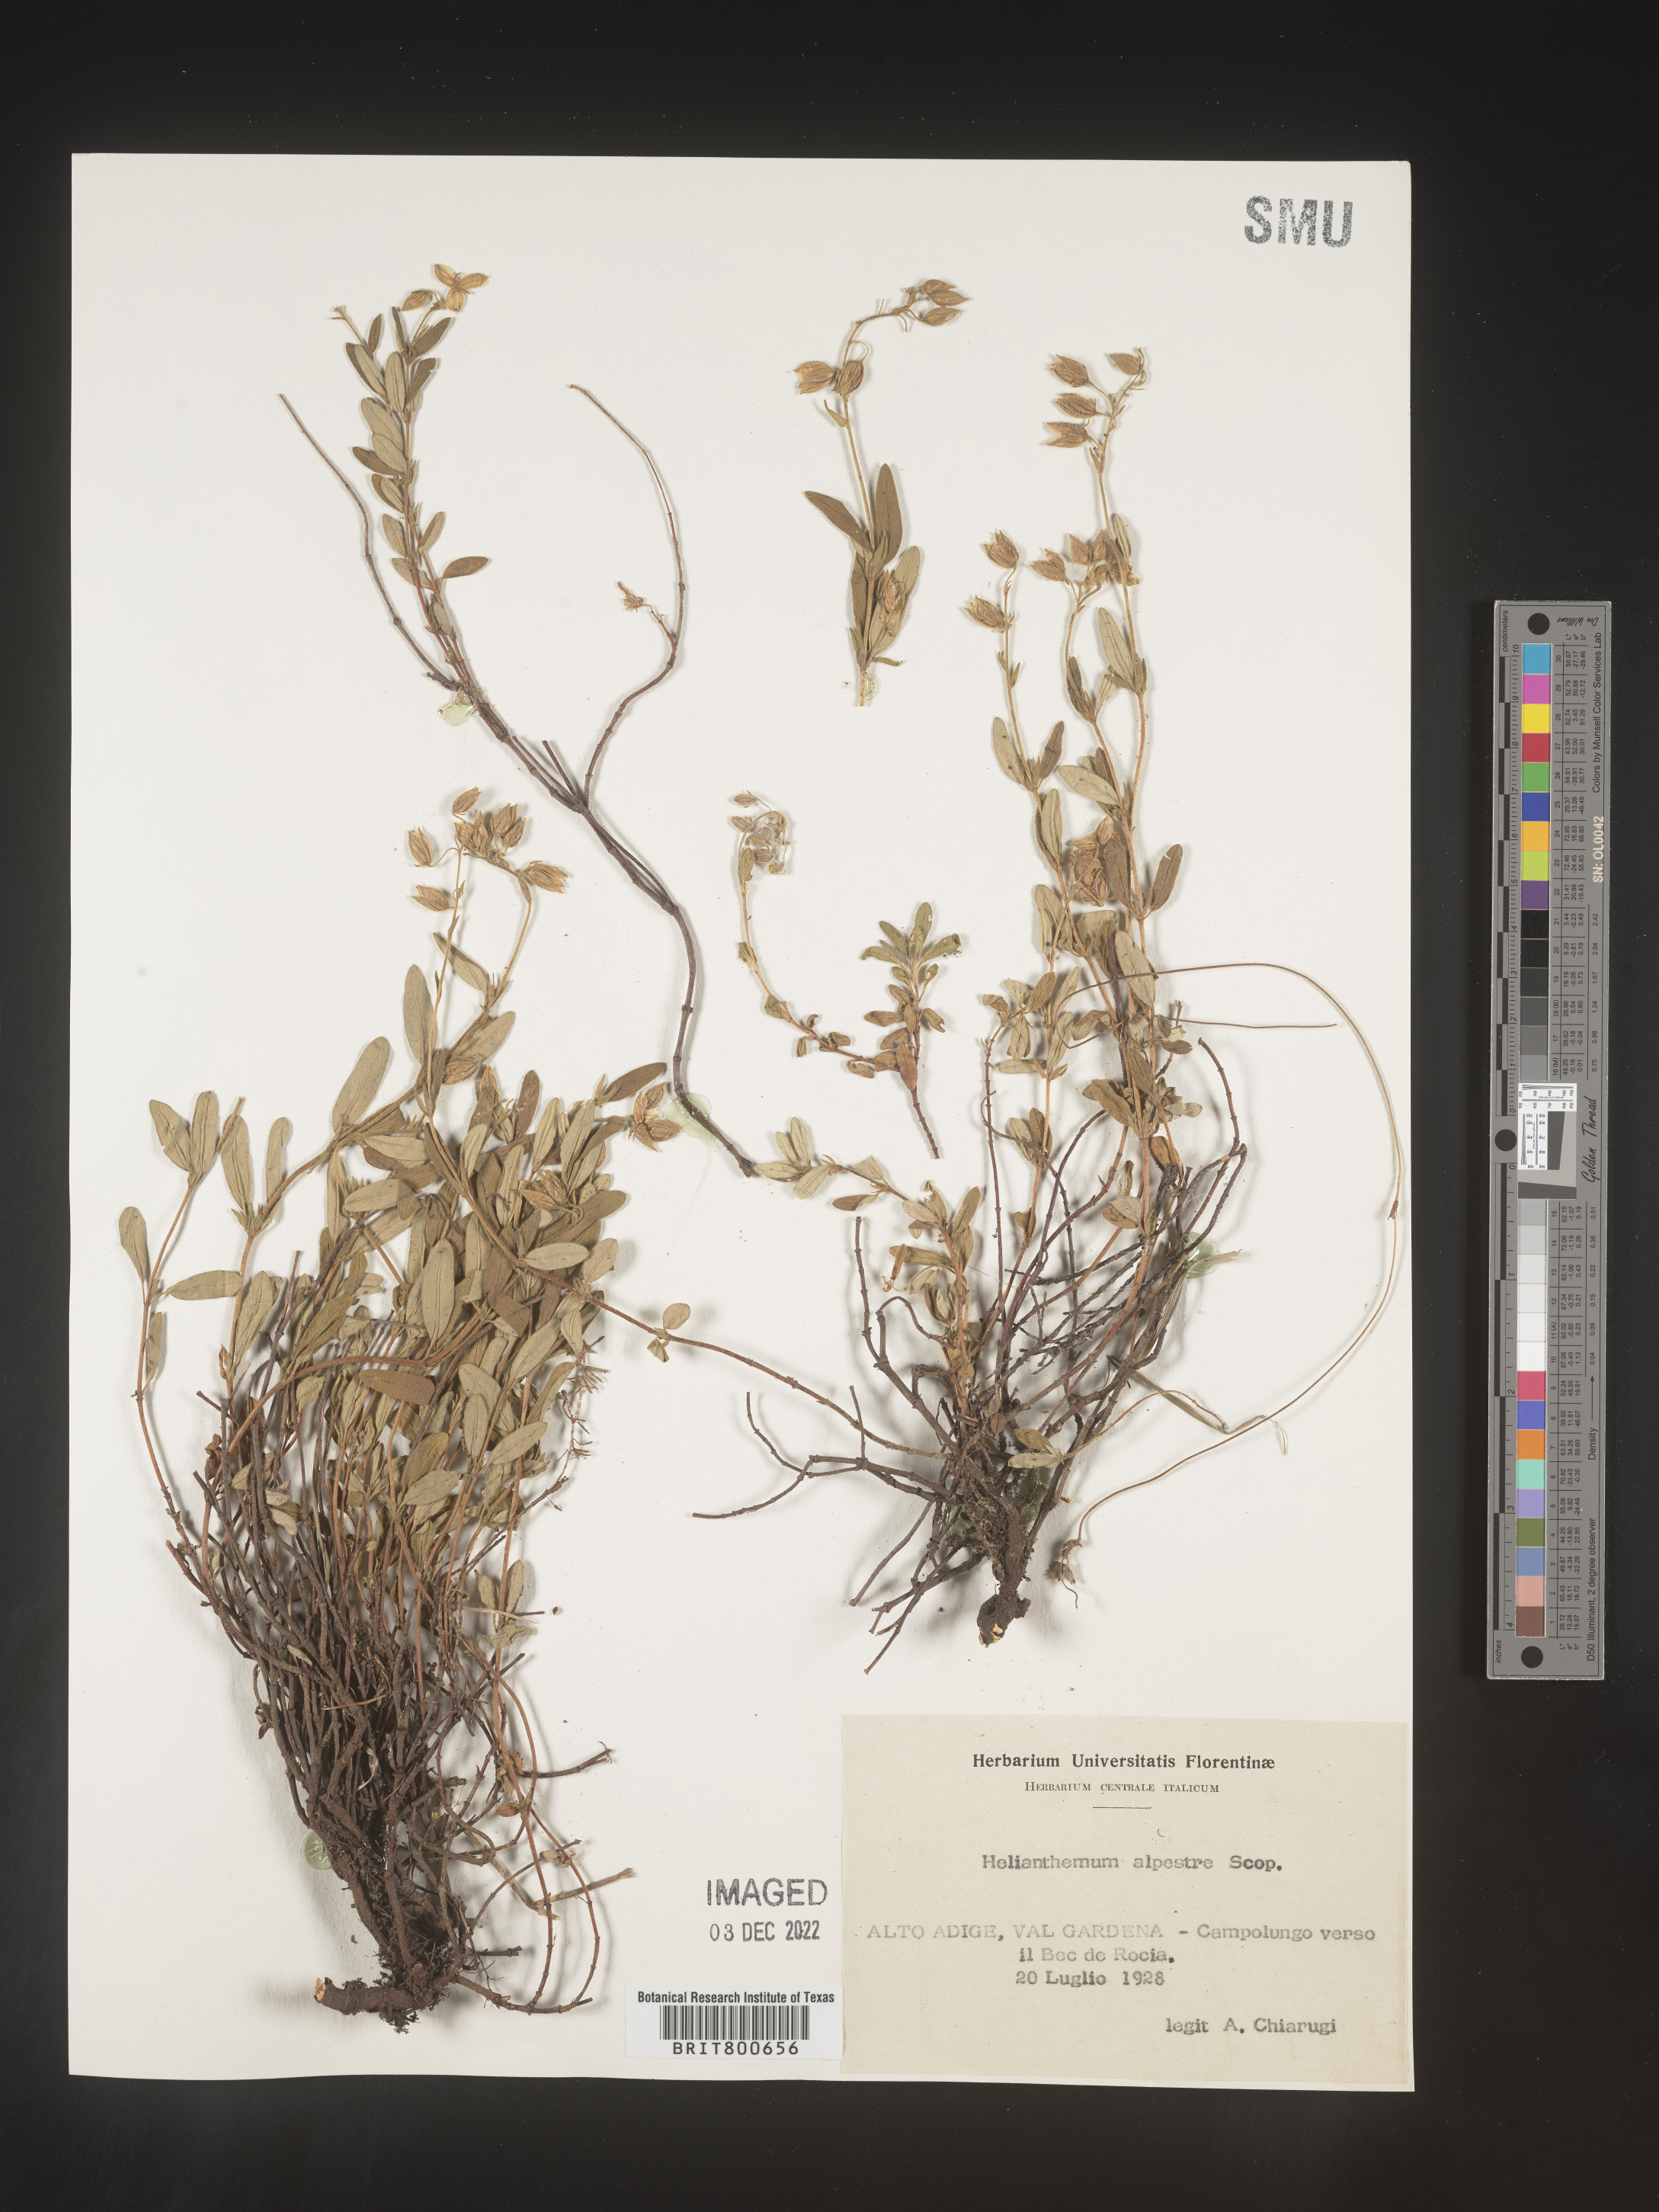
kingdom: Plantae
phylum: Tracheophyta
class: Magnoliopsida
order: Malvales
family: Cistaceae
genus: Helianthemum
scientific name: Helianthemum
